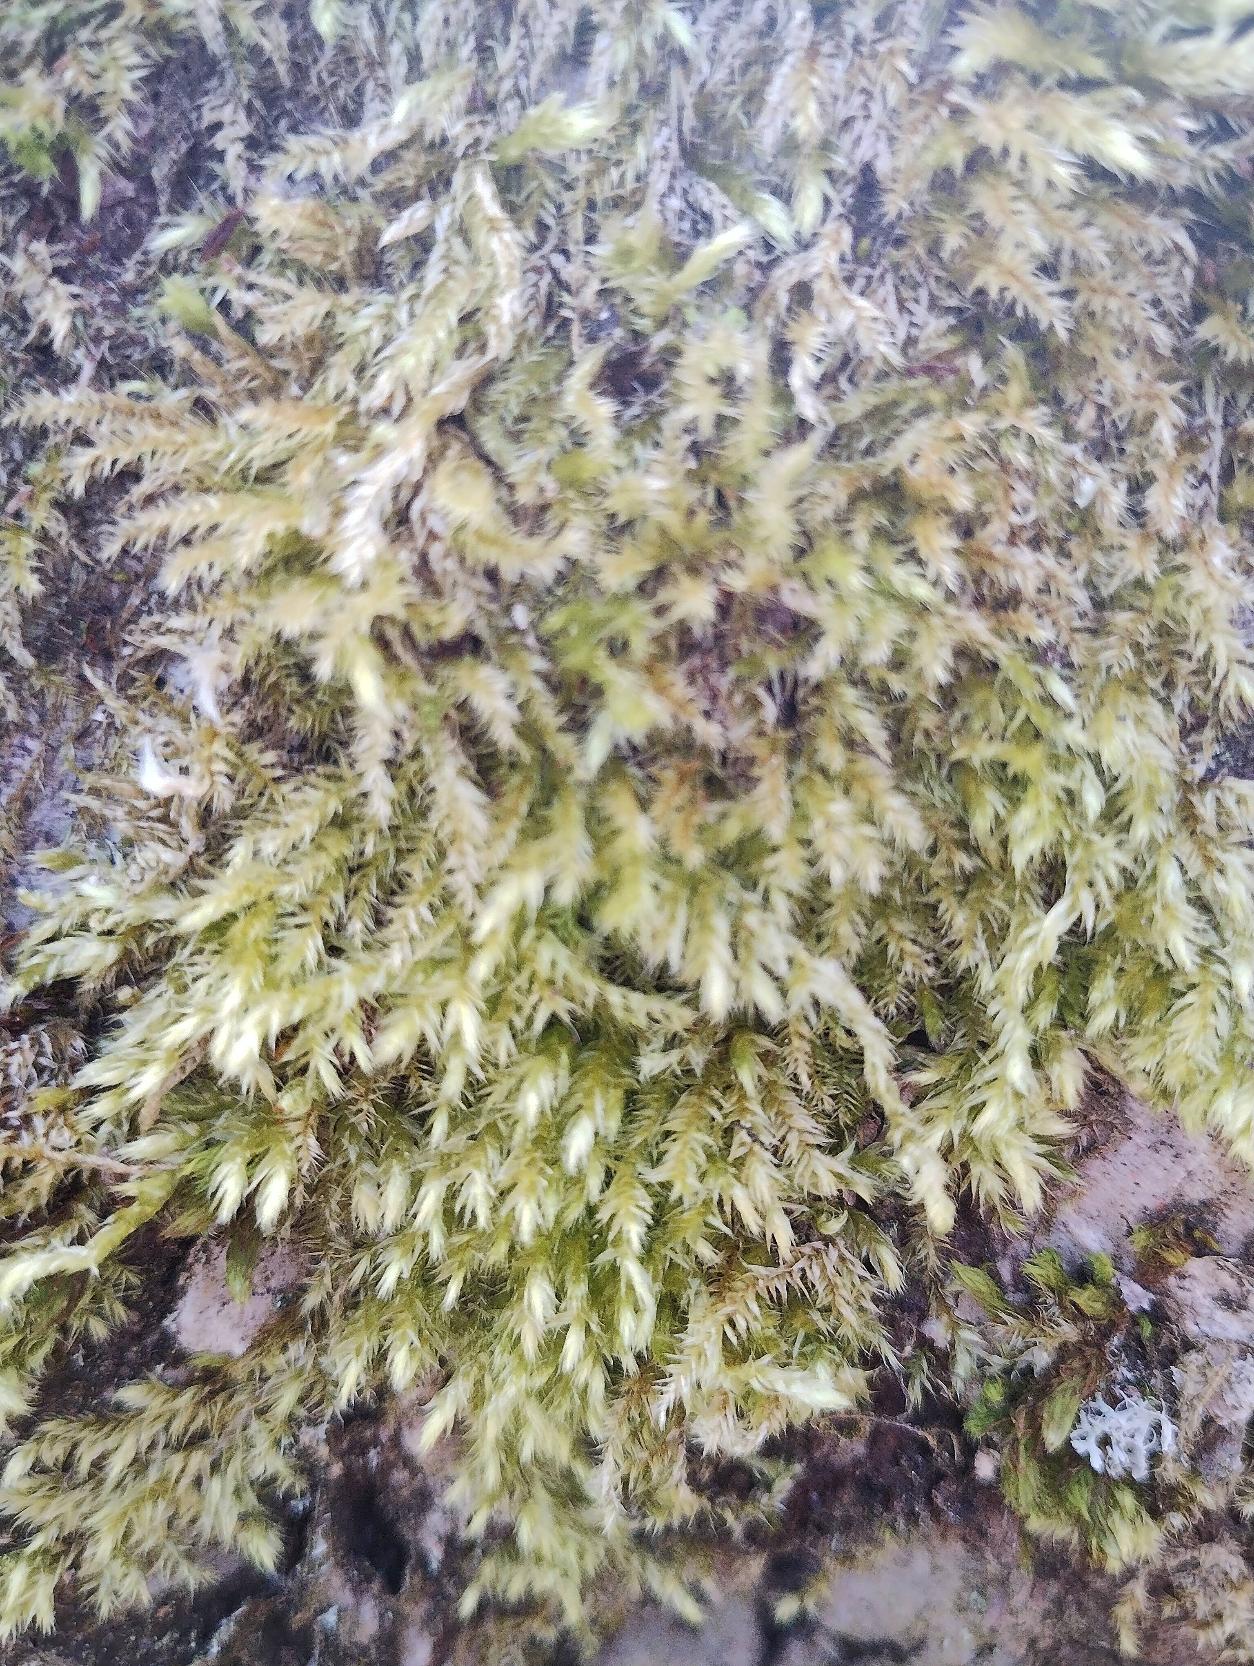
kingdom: Plantae
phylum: Bryophyta
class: Bryopsida
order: Hypnales
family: Brachytheciaceae
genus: Brachythecium
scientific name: Brachythecium rutabulum
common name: Almindelig kortkapsel
